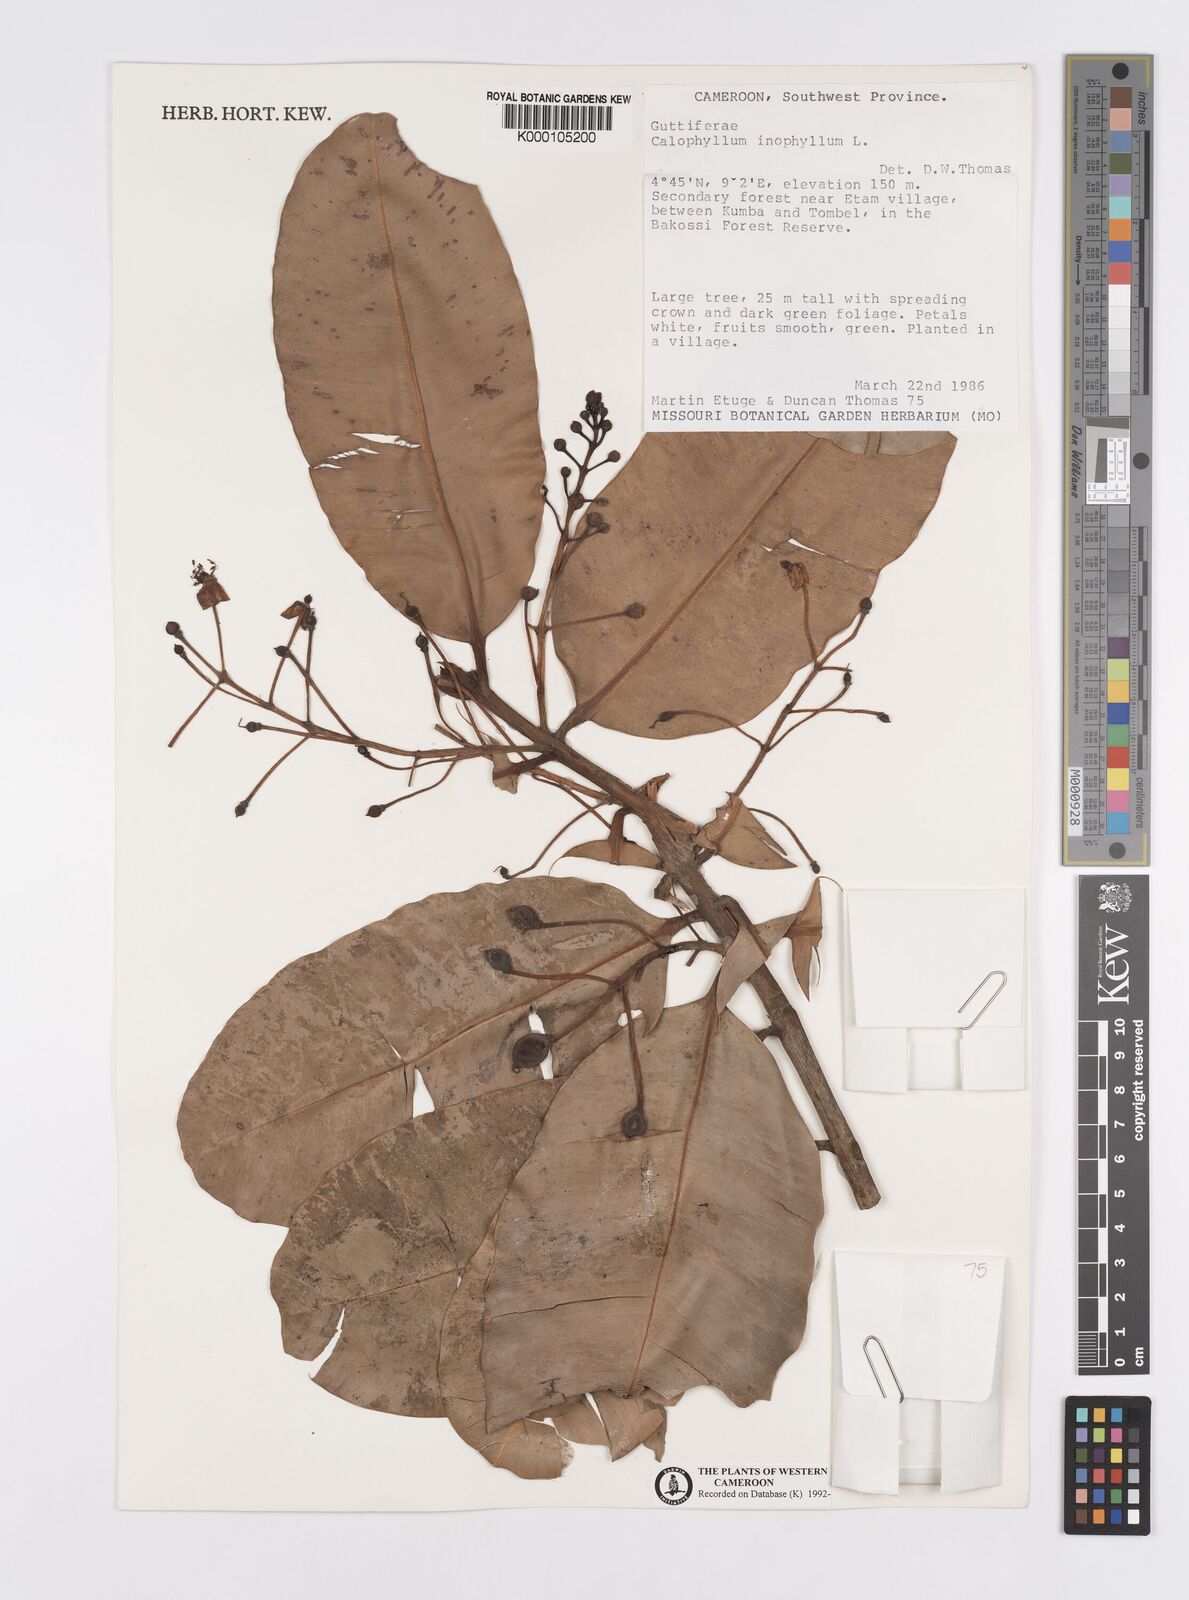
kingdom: Plantae
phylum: Tracheophyta
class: Magnoliopsida
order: Malpighiales
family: Calophyllaceae
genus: Calophyllum
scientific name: Calophyllum inophyllum
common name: Alexandrian laurel
